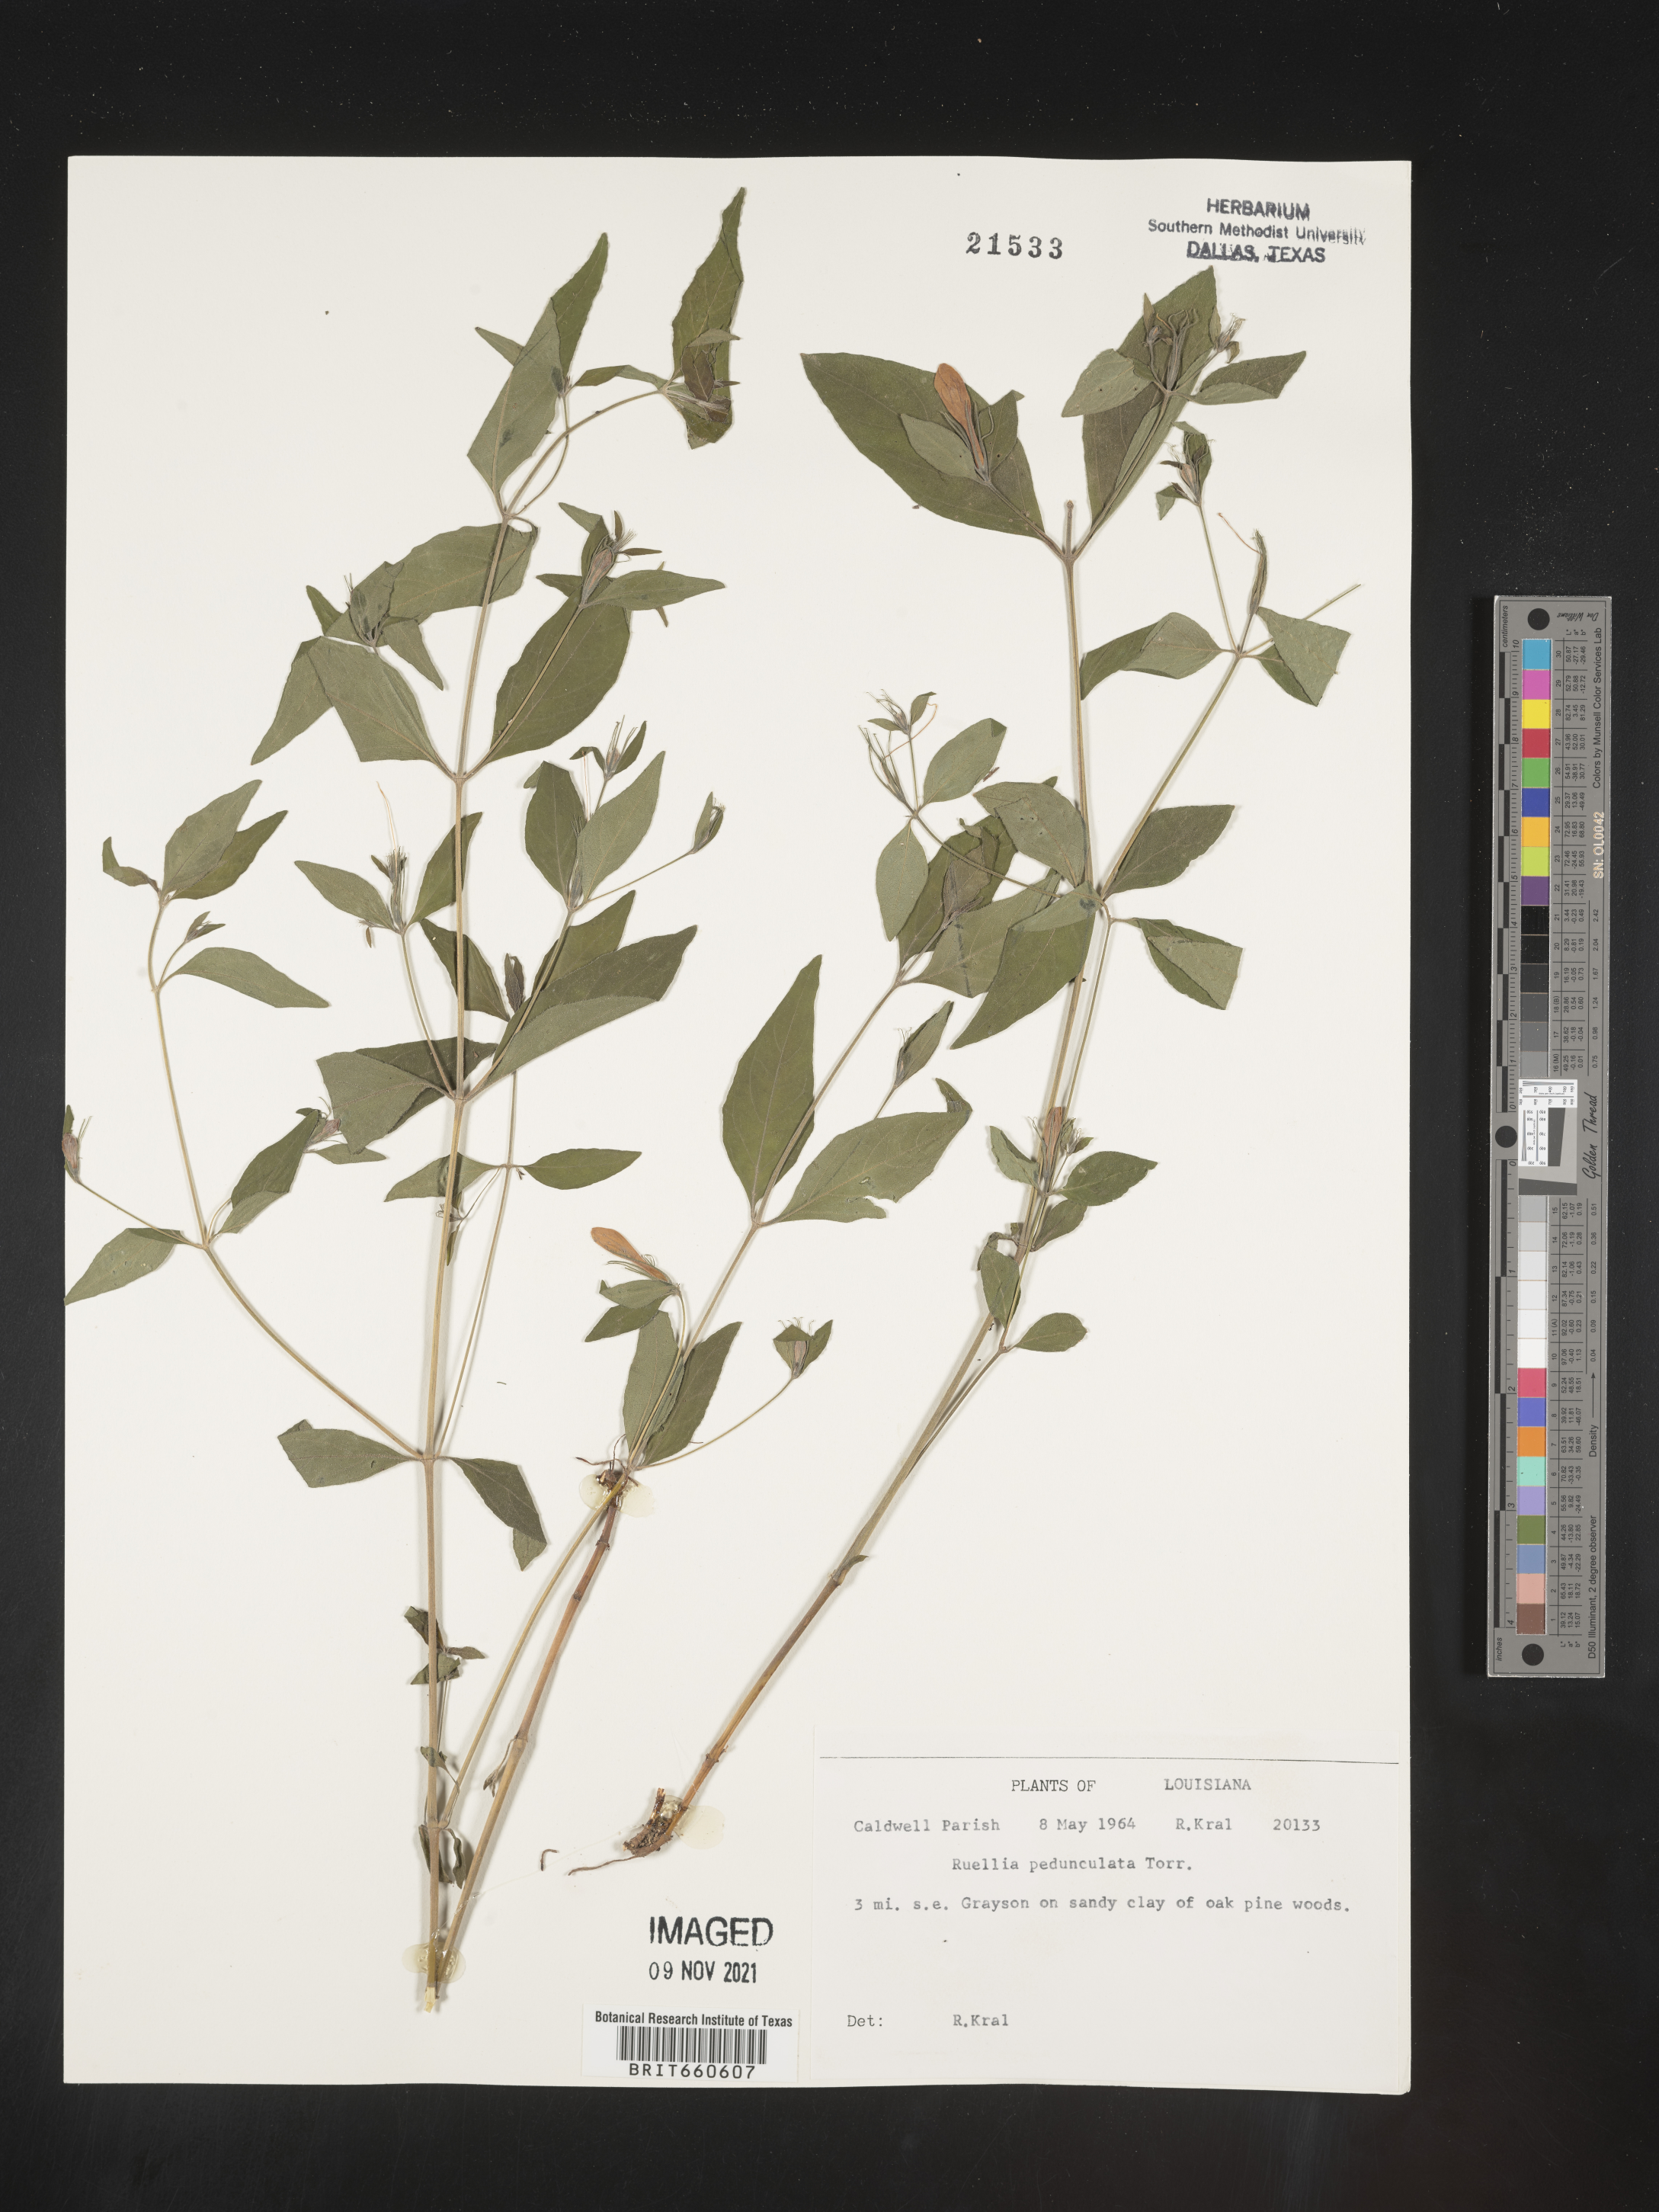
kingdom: Plantae
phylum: Tracheophyta
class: Magnoliopsida
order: Lamiales
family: Acanthaceae
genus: Ruellia
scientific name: Ruellia pedunculata
